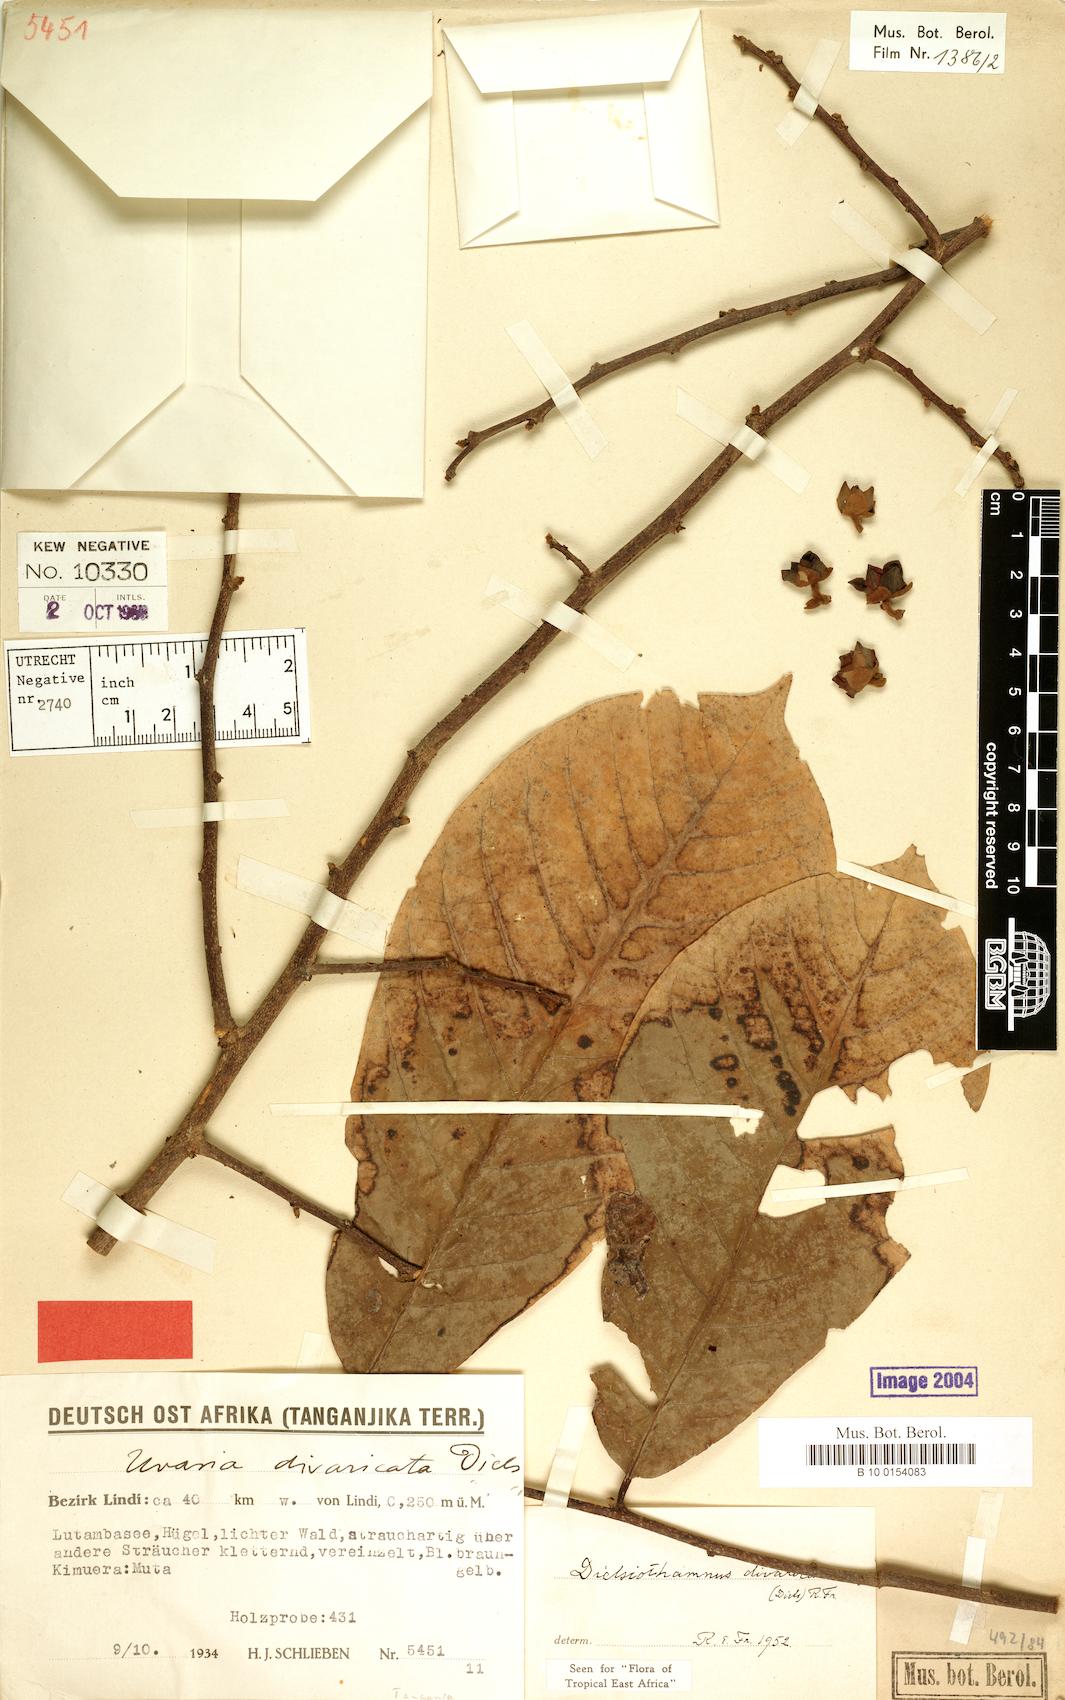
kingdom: Plantae
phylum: Tracheophyta
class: Magnoliopsida
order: Magnoliales
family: Annonaceae
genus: Dielsiothamnus
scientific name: Dielsiothamnus divaricatus
